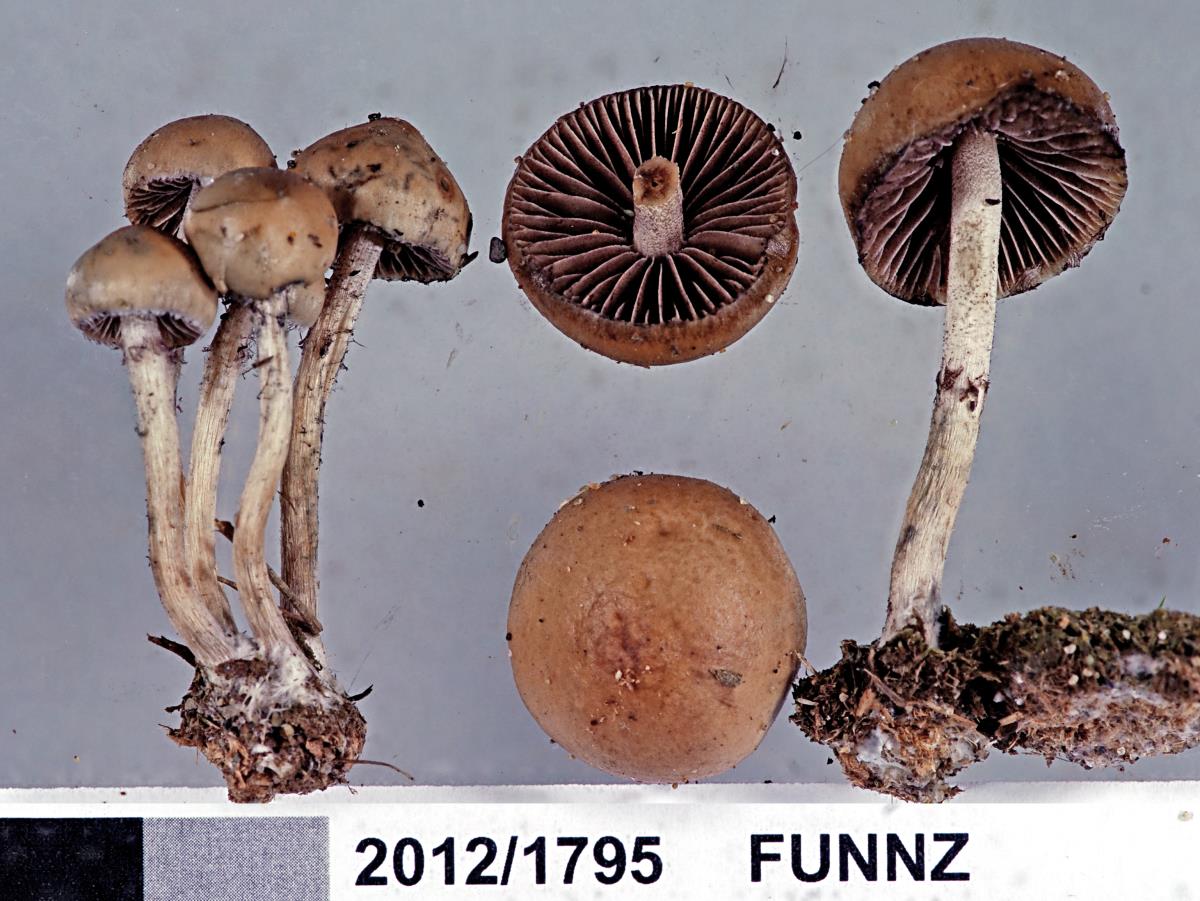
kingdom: Fungi
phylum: Basidiomycota
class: Agaricomycetes
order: Agaricales
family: Hymenogastraceae
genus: Psilocybe
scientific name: Psilocybe alutacea
